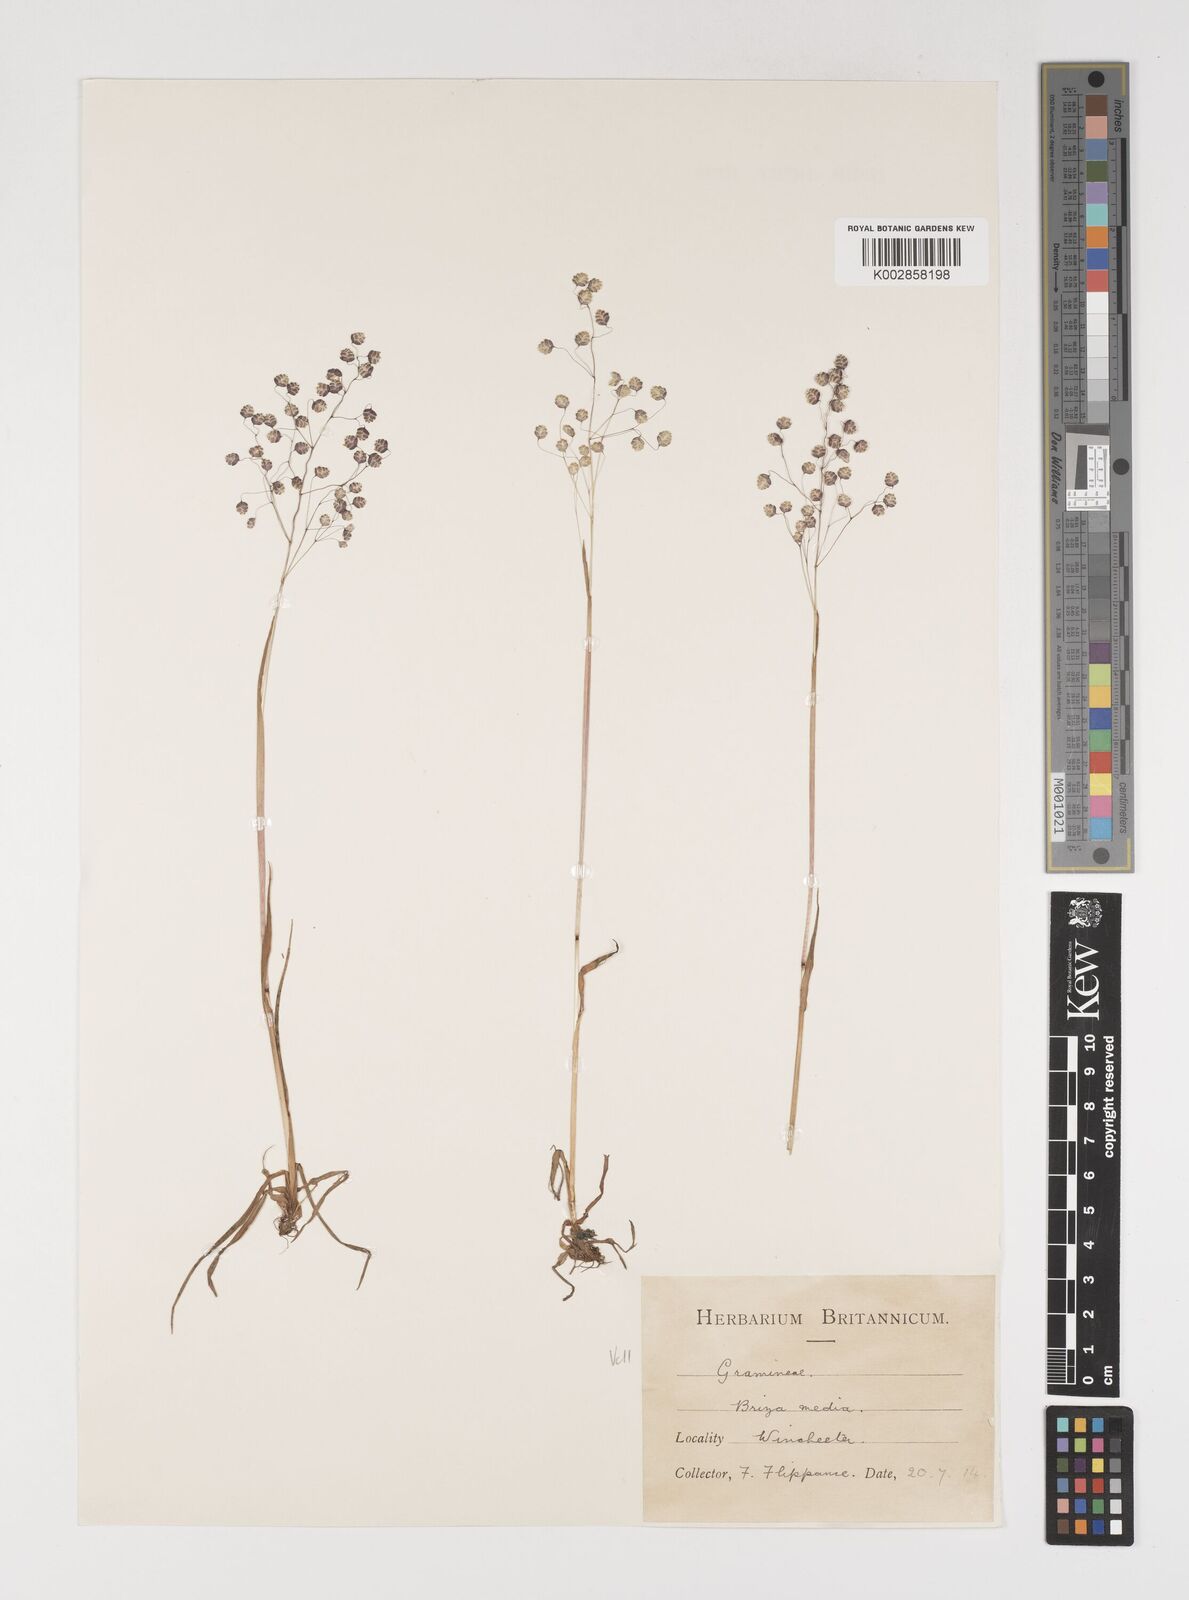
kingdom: Plantae
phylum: Tracheophyta
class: Liliopsida
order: Poales
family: Poaceae
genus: Briza
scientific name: Briza media
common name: Quaking grass
